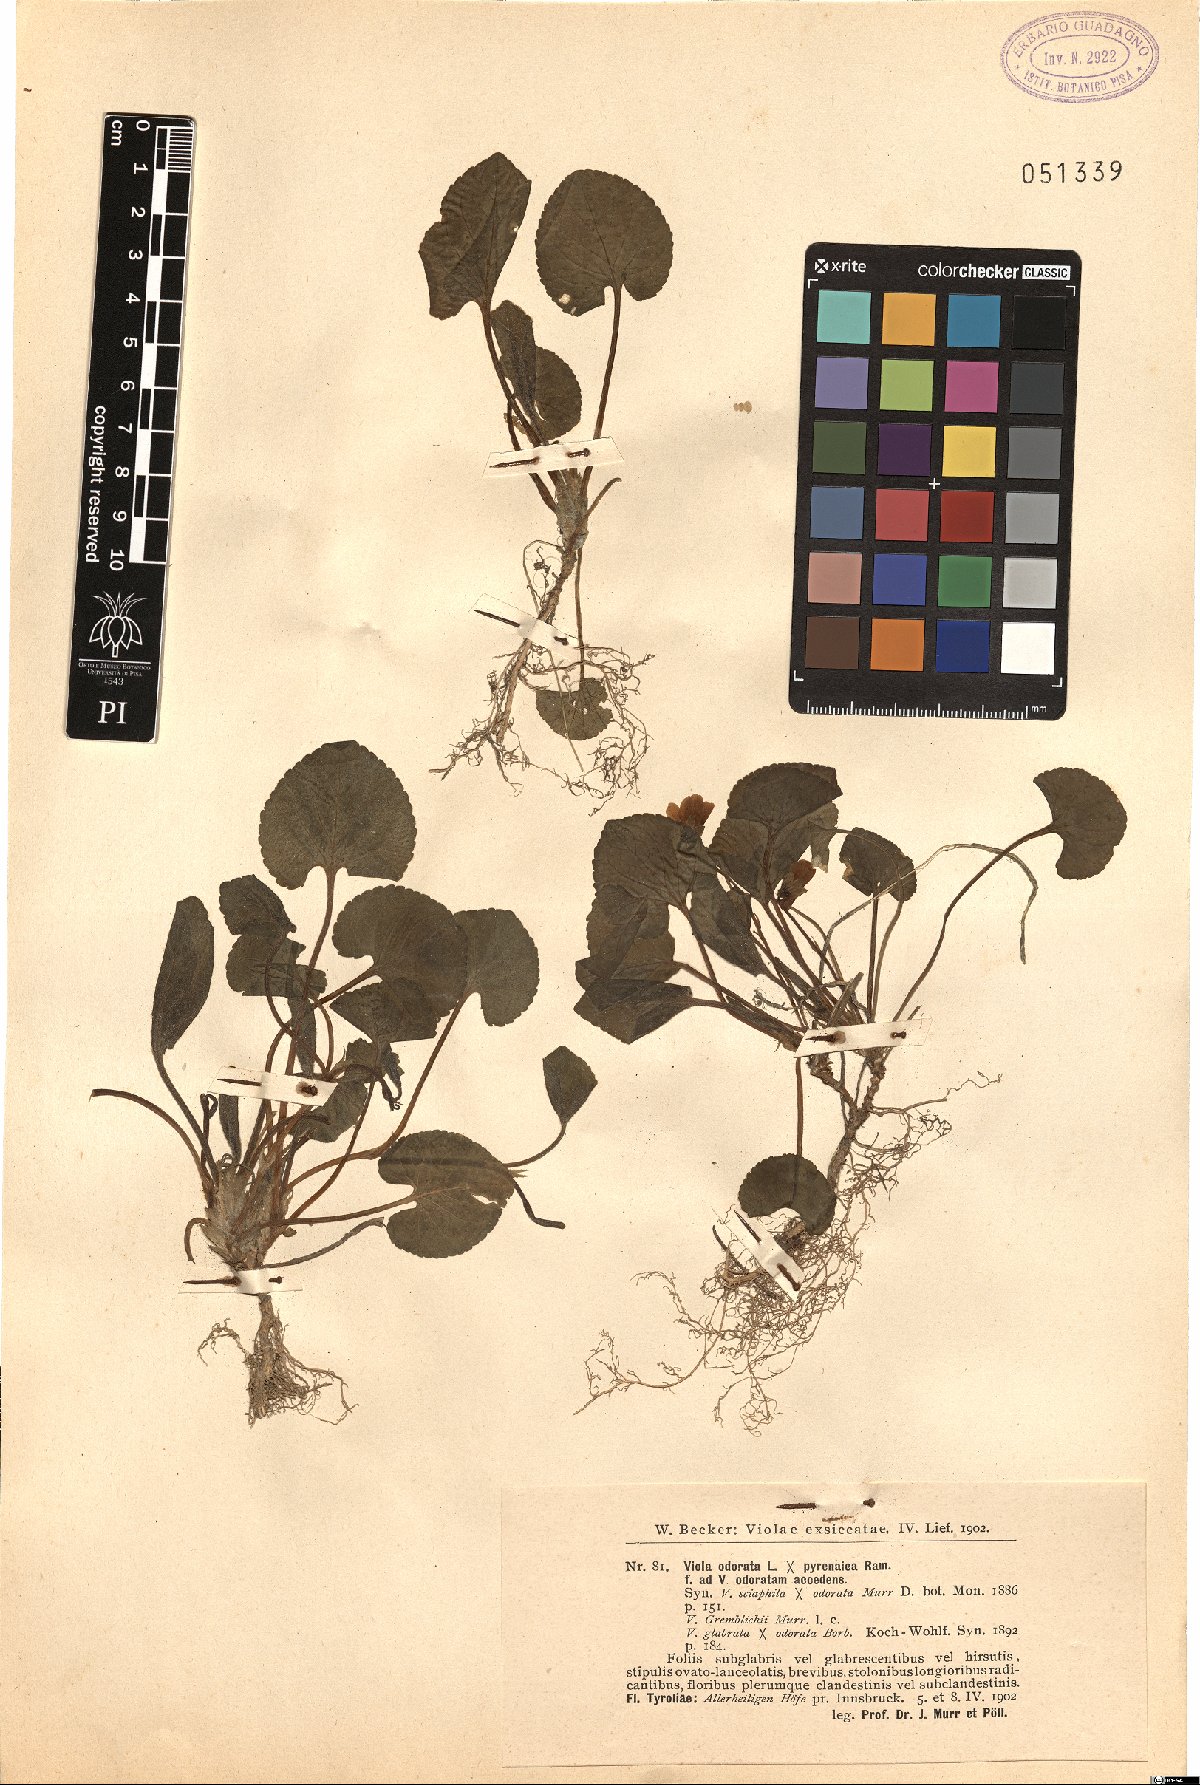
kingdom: Plantae
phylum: Tracheophyta
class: Magnoliopsida
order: Malpighiales
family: Violaceae
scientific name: Violaceae
